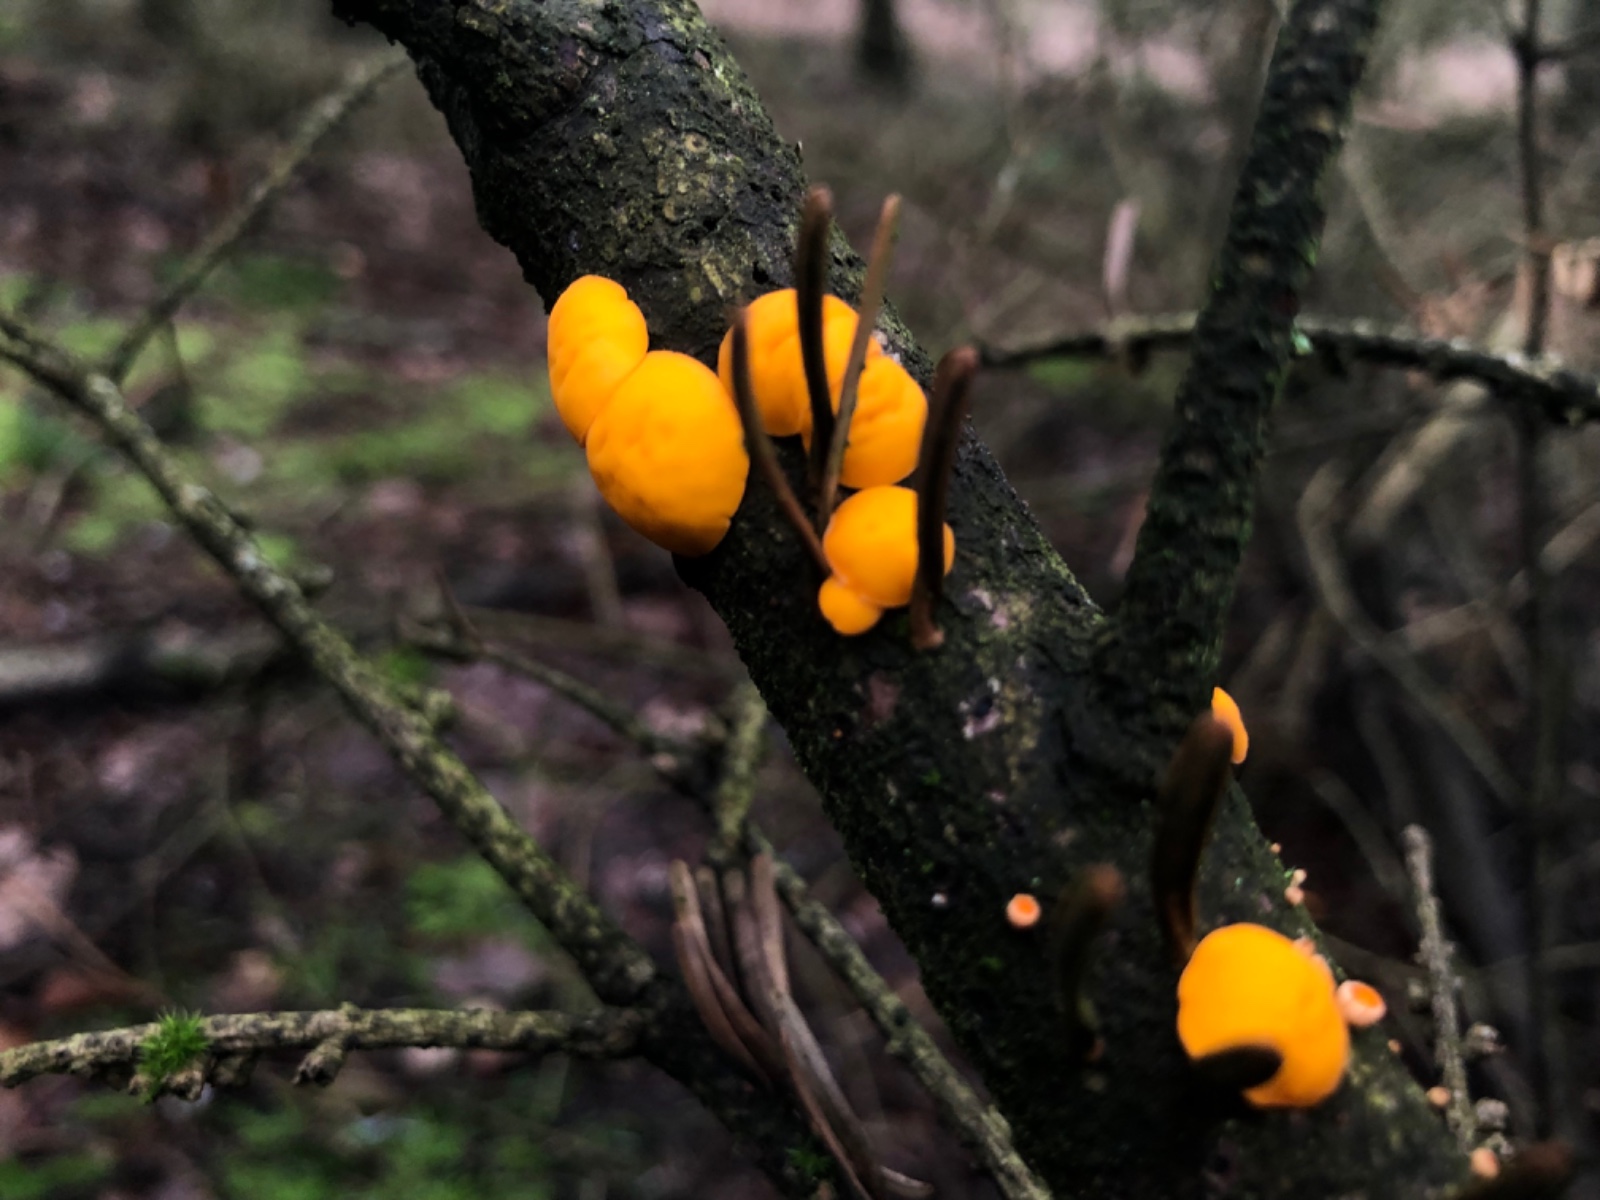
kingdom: Fungi
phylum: Ascomycota
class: Pezizomycetes
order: Pezizales
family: Sarcoscyphaceae
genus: Pithya
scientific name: Pithya vulgaris
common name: stor dukatbæger
